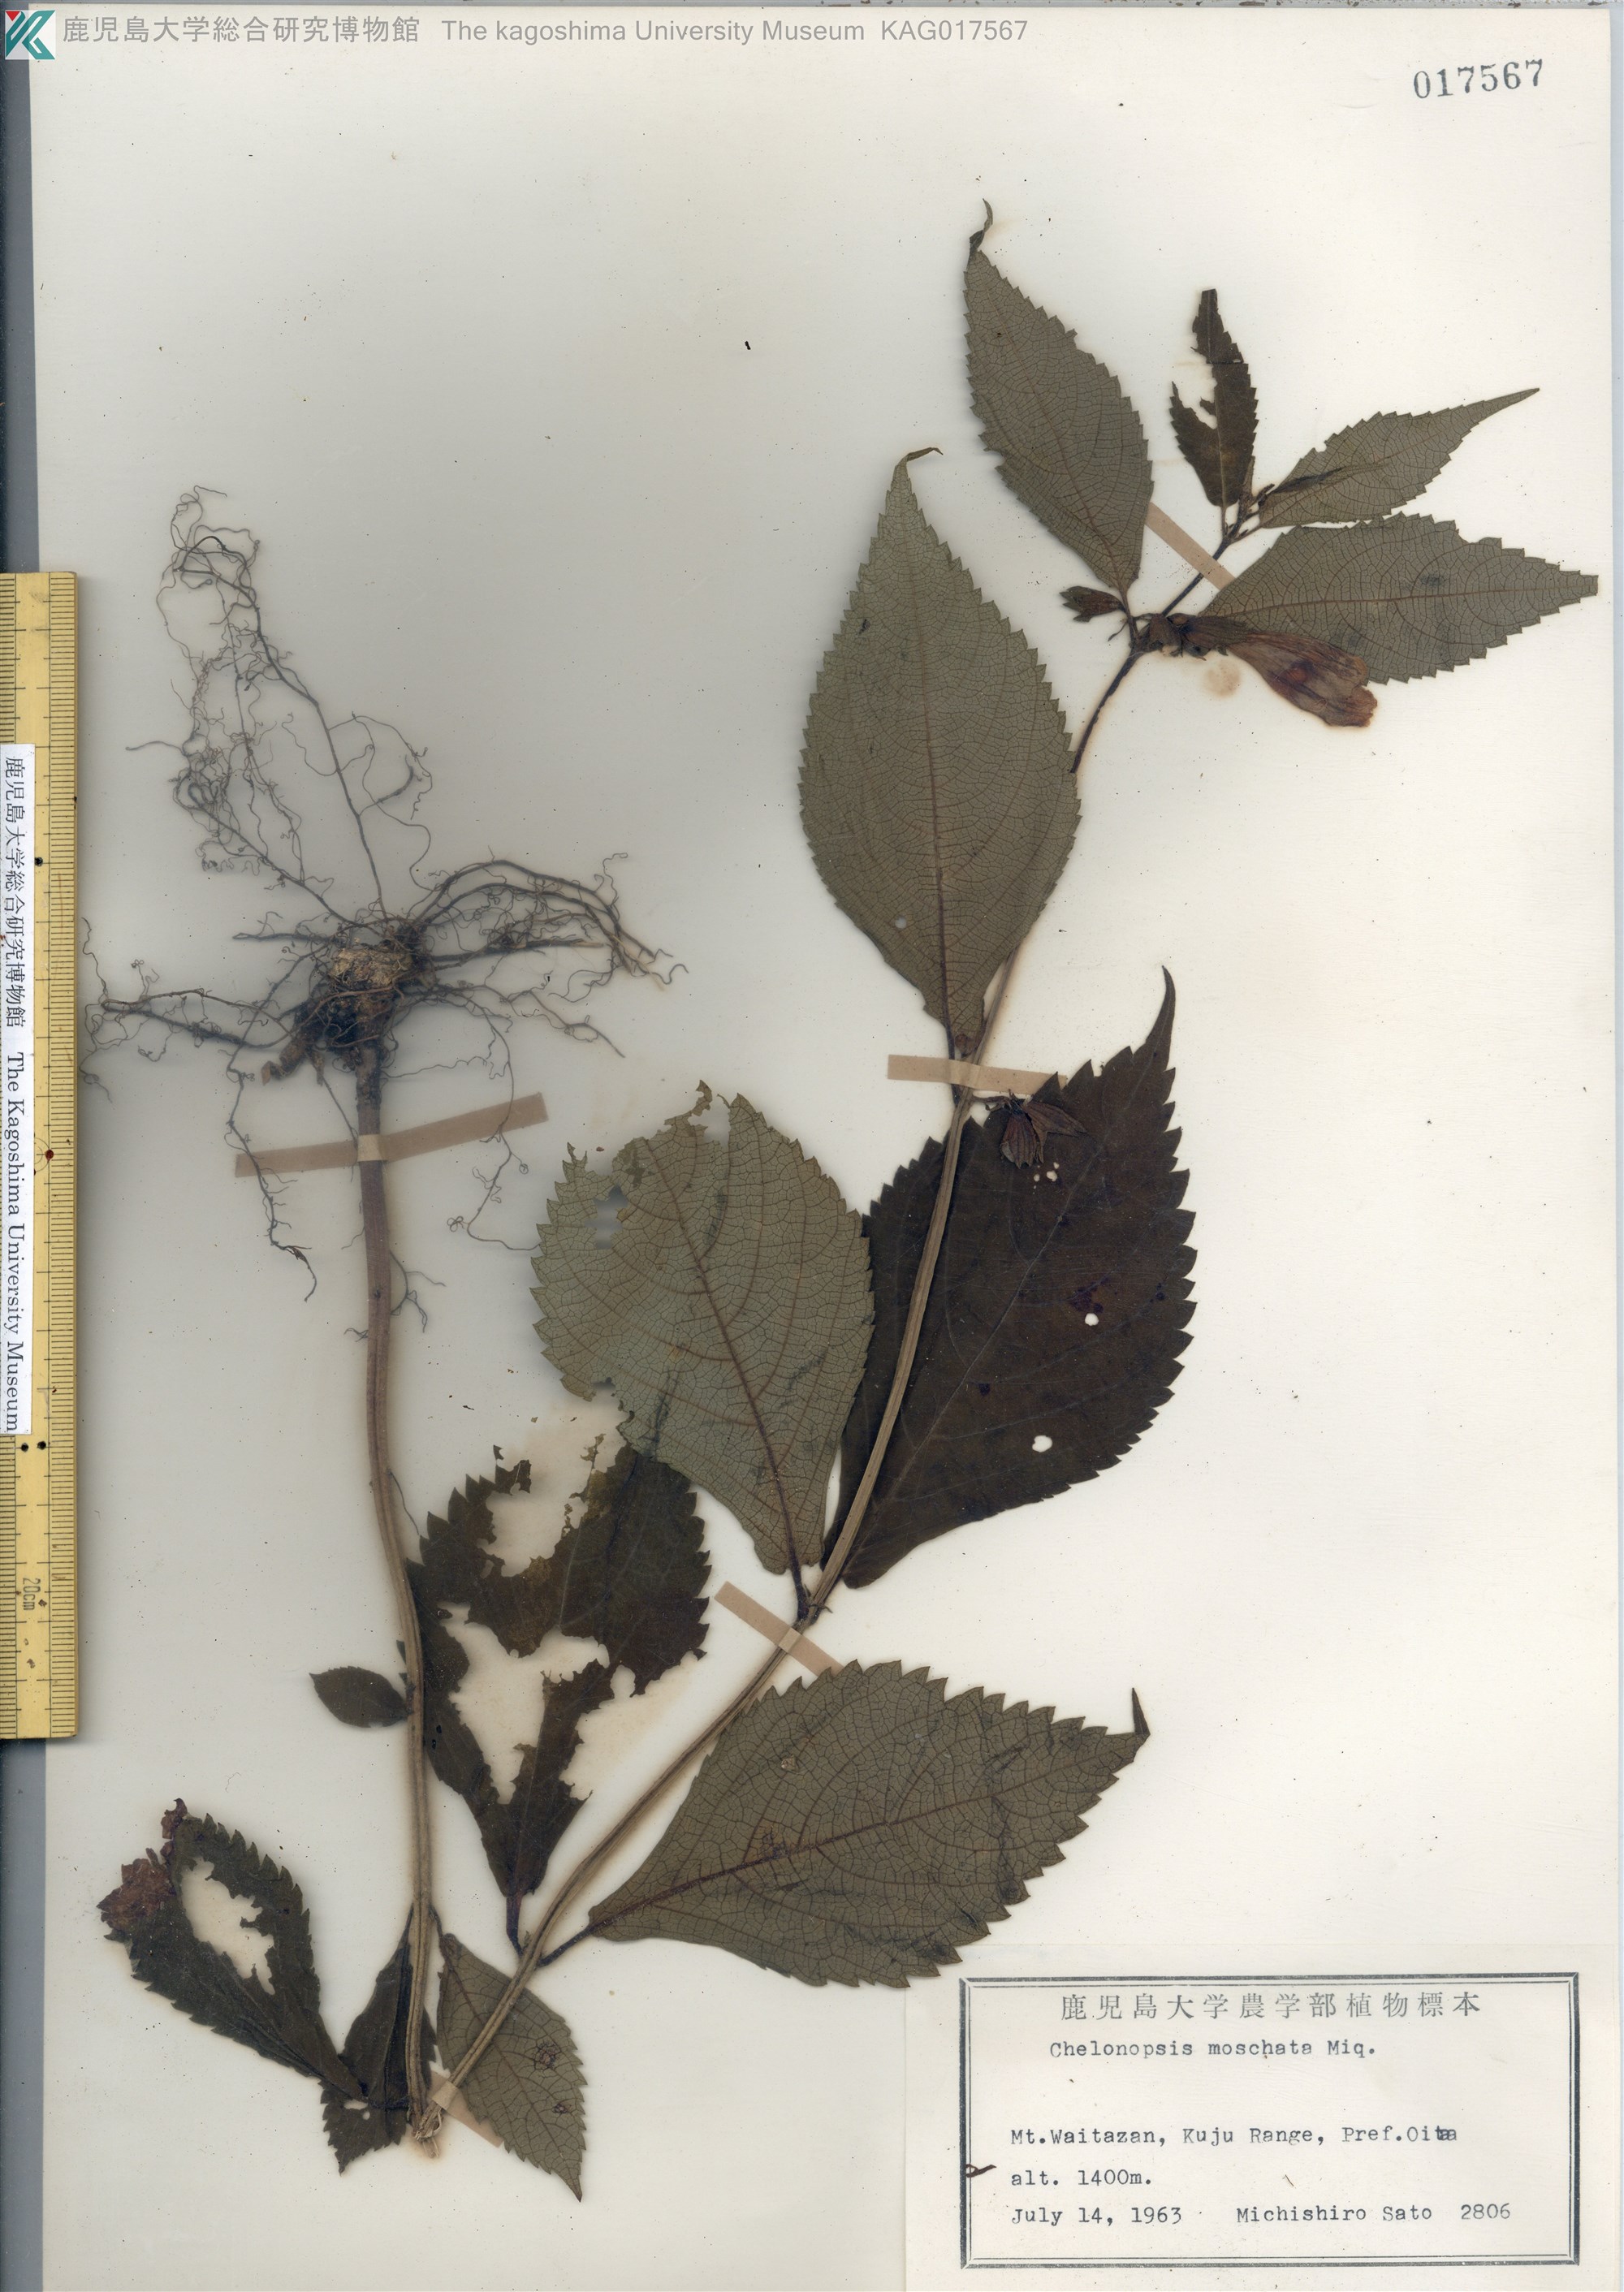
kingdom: Plantae
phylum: Tracheophyta
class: Magnoliopsida
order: Lamiales
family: Lamiaceae
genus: Chelonopsis
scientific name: Chelonopsis moschata
